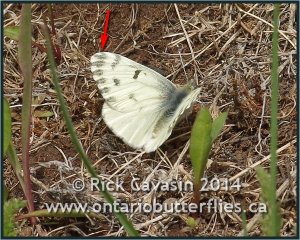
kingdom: Animalia
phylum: Arthropoda
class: Insecta
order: Lepidoptera
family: Pieridae
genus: Pontia
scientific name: Pontia sisymbrii
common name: Spring White
